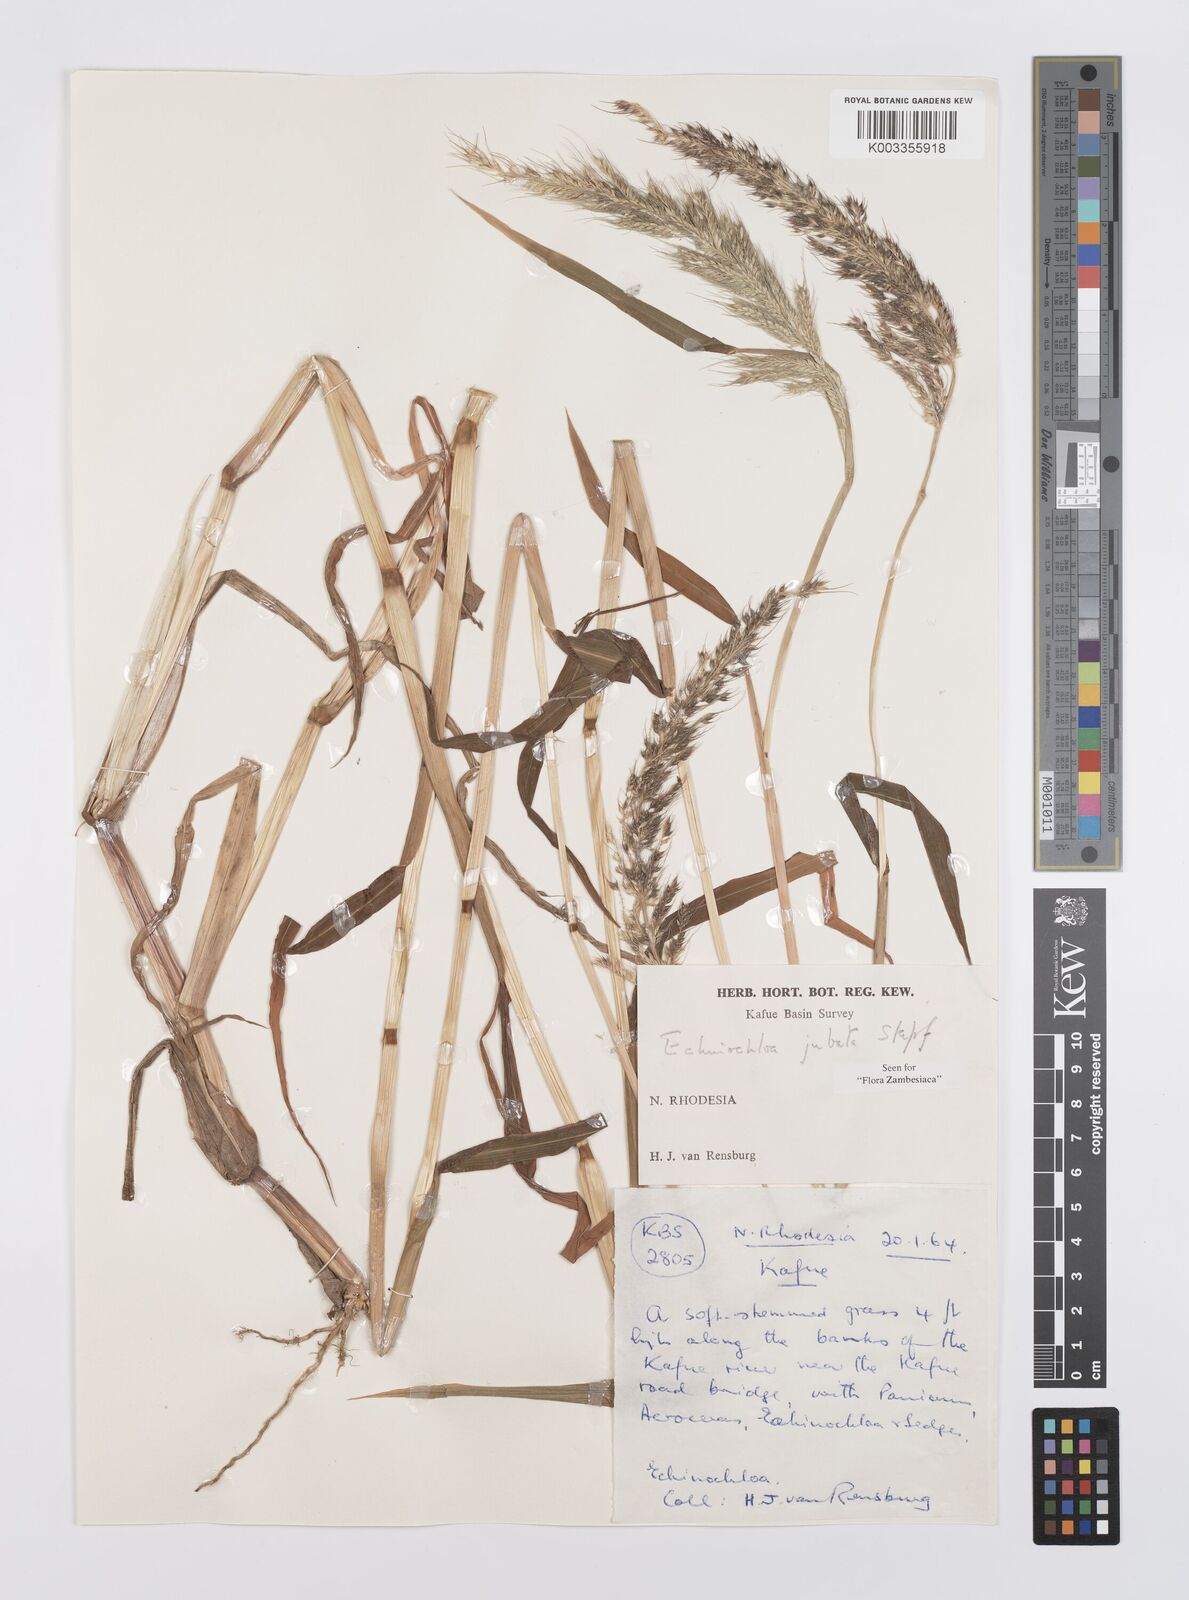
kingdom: Plantae
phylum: Tracheophyta
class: Liliopsida
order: Poales
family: Poaceae
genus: Echinochloa
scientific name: Echinochloa jubata
